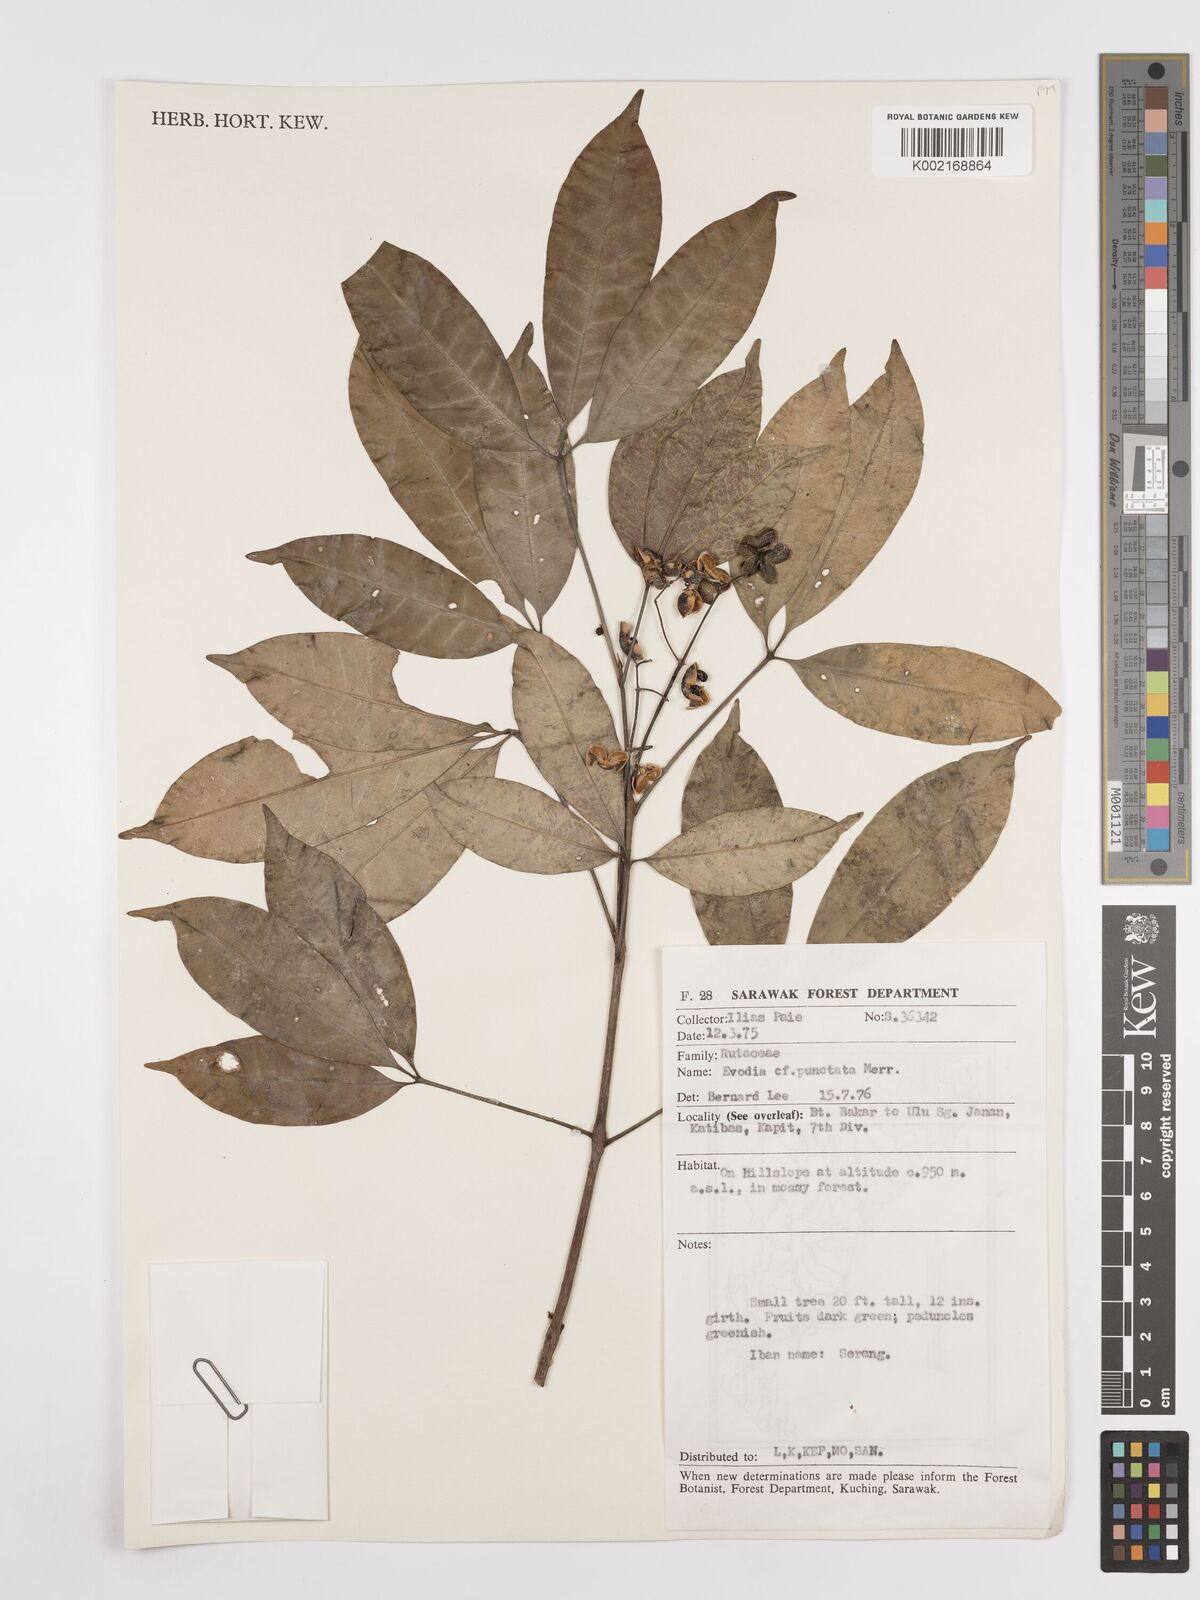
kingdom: Plantae
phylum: Tracheophyta
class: Magnoliopsida
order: Sapindales
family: Rutaceae
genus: Melicope
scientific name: Melicope lunu-ankenda
